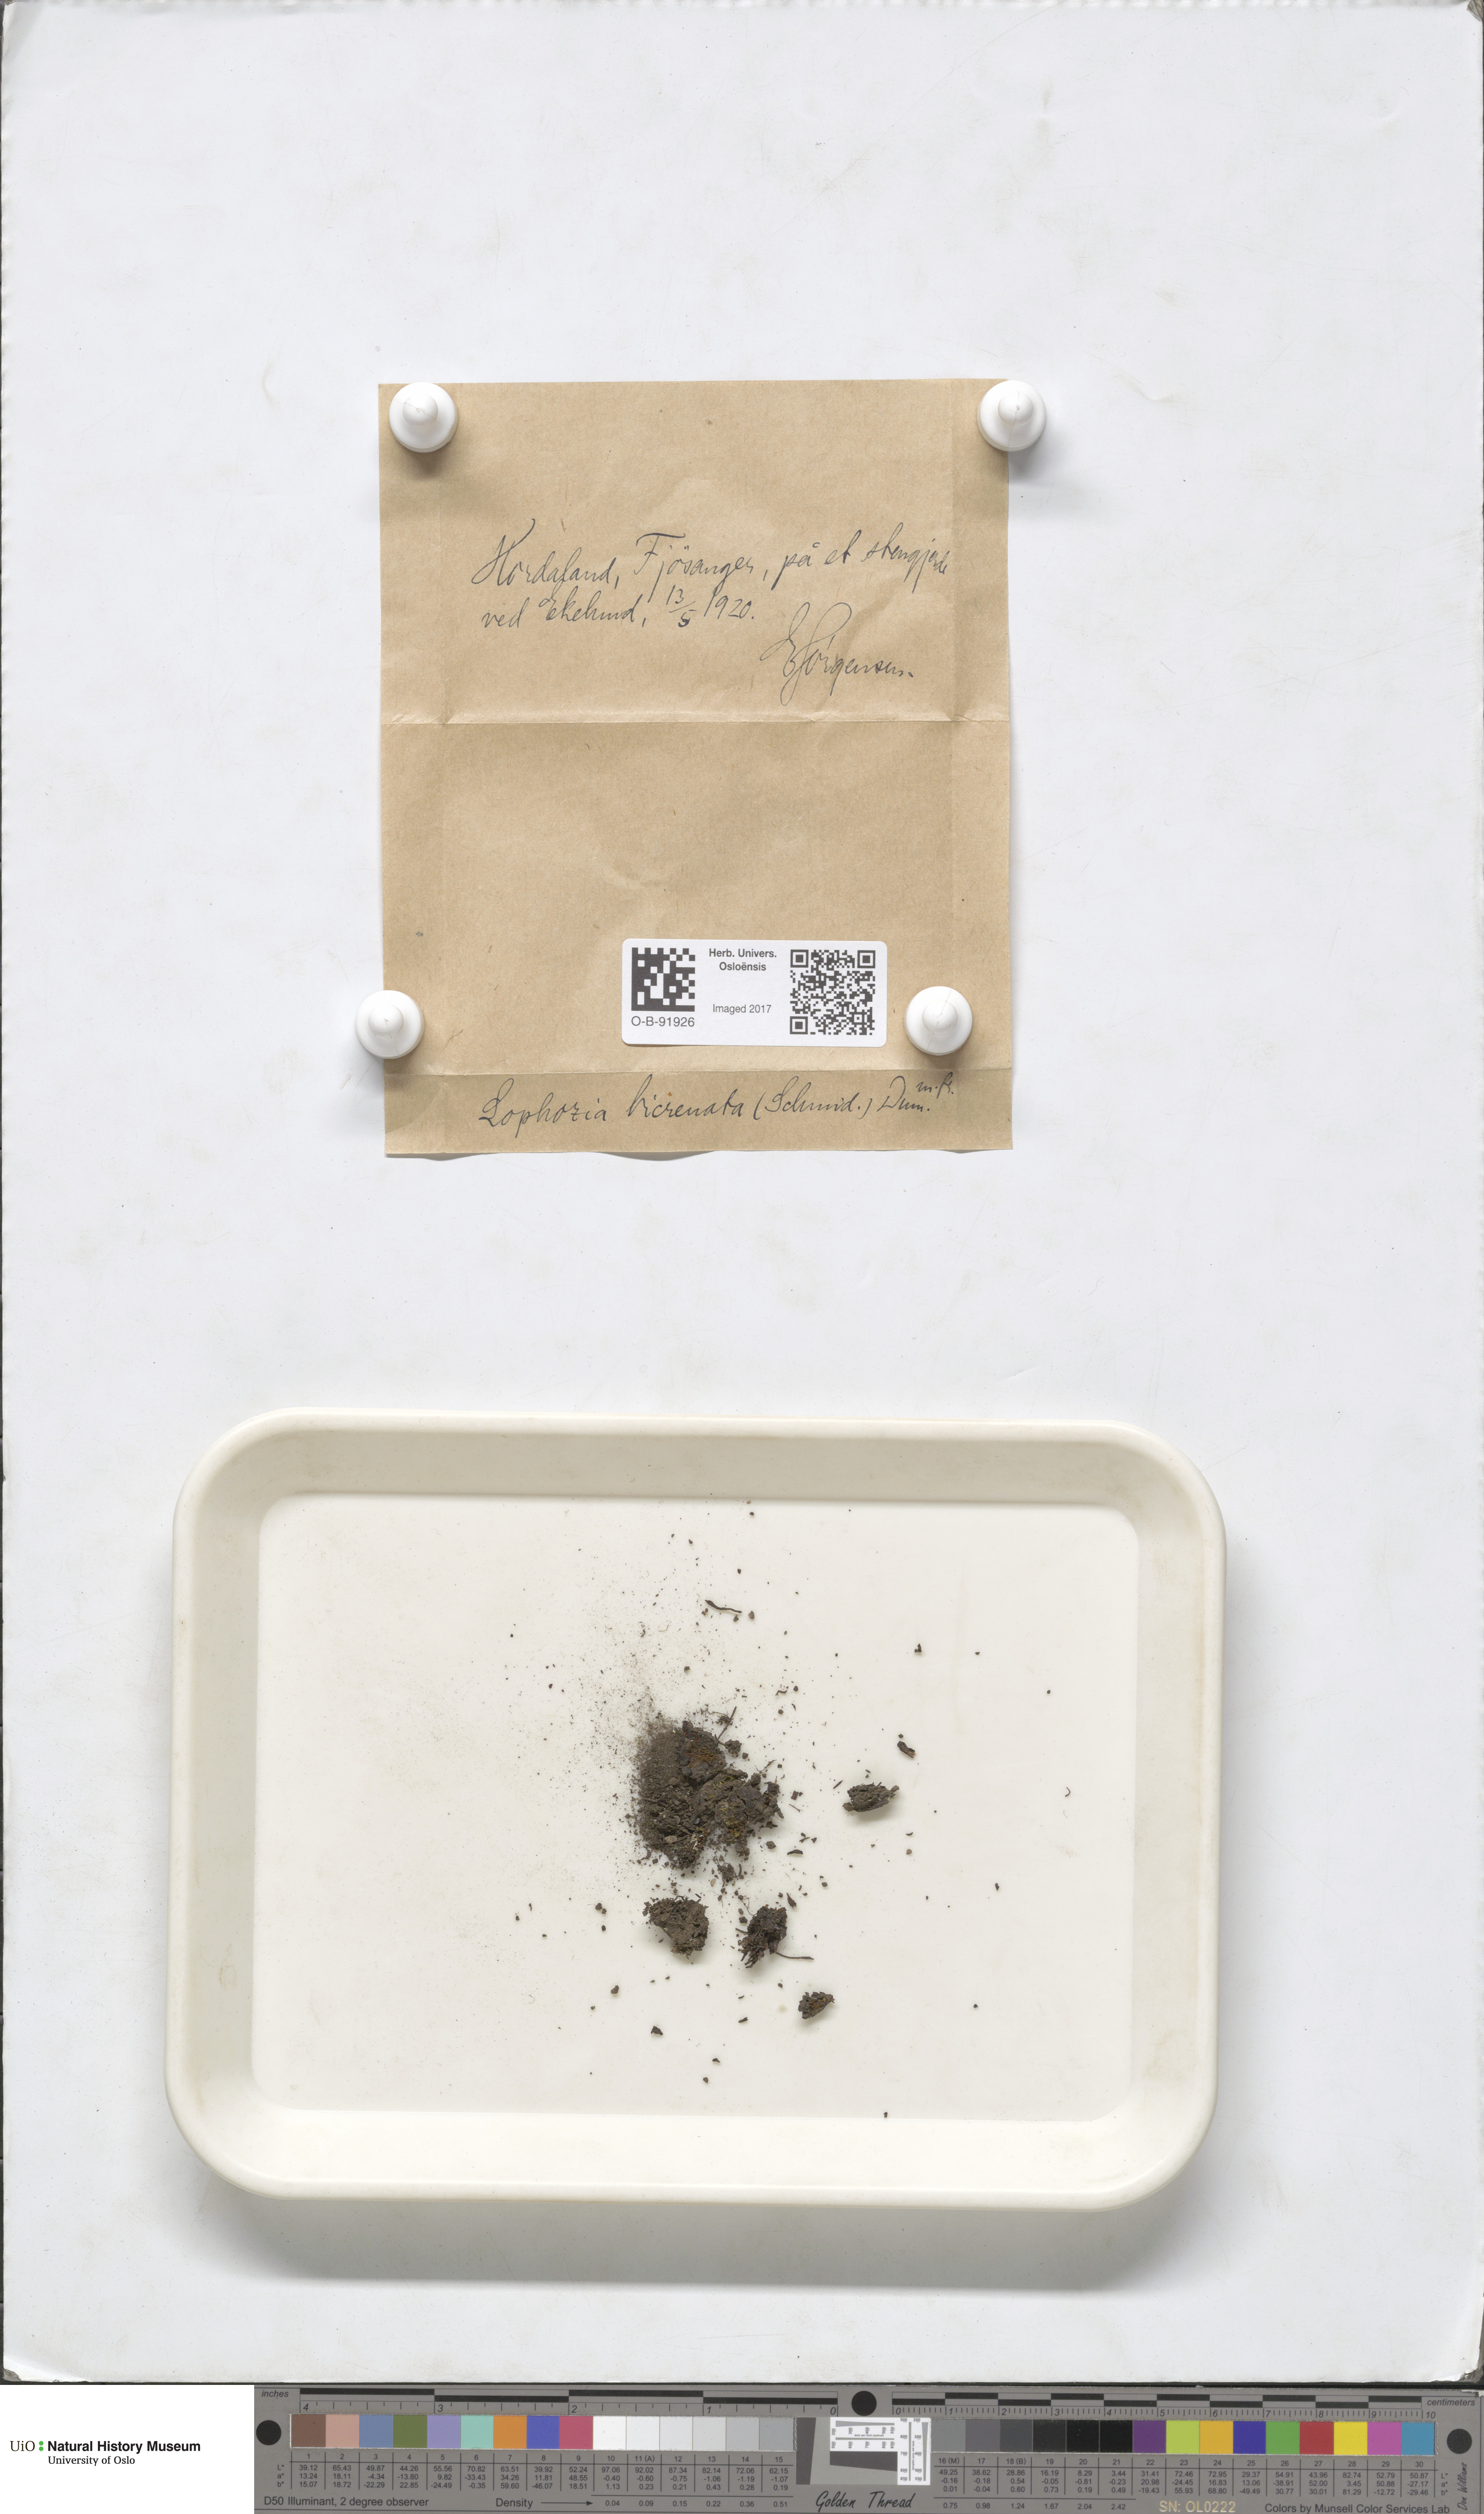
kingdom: Plantae
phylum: Marchantiophyta
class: Jungermanniopsida
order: Jungermanniales
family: Anastrophyllaceae
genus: Isopaches
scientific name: Isopaches bicrenatus
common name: Lesser notchwort
